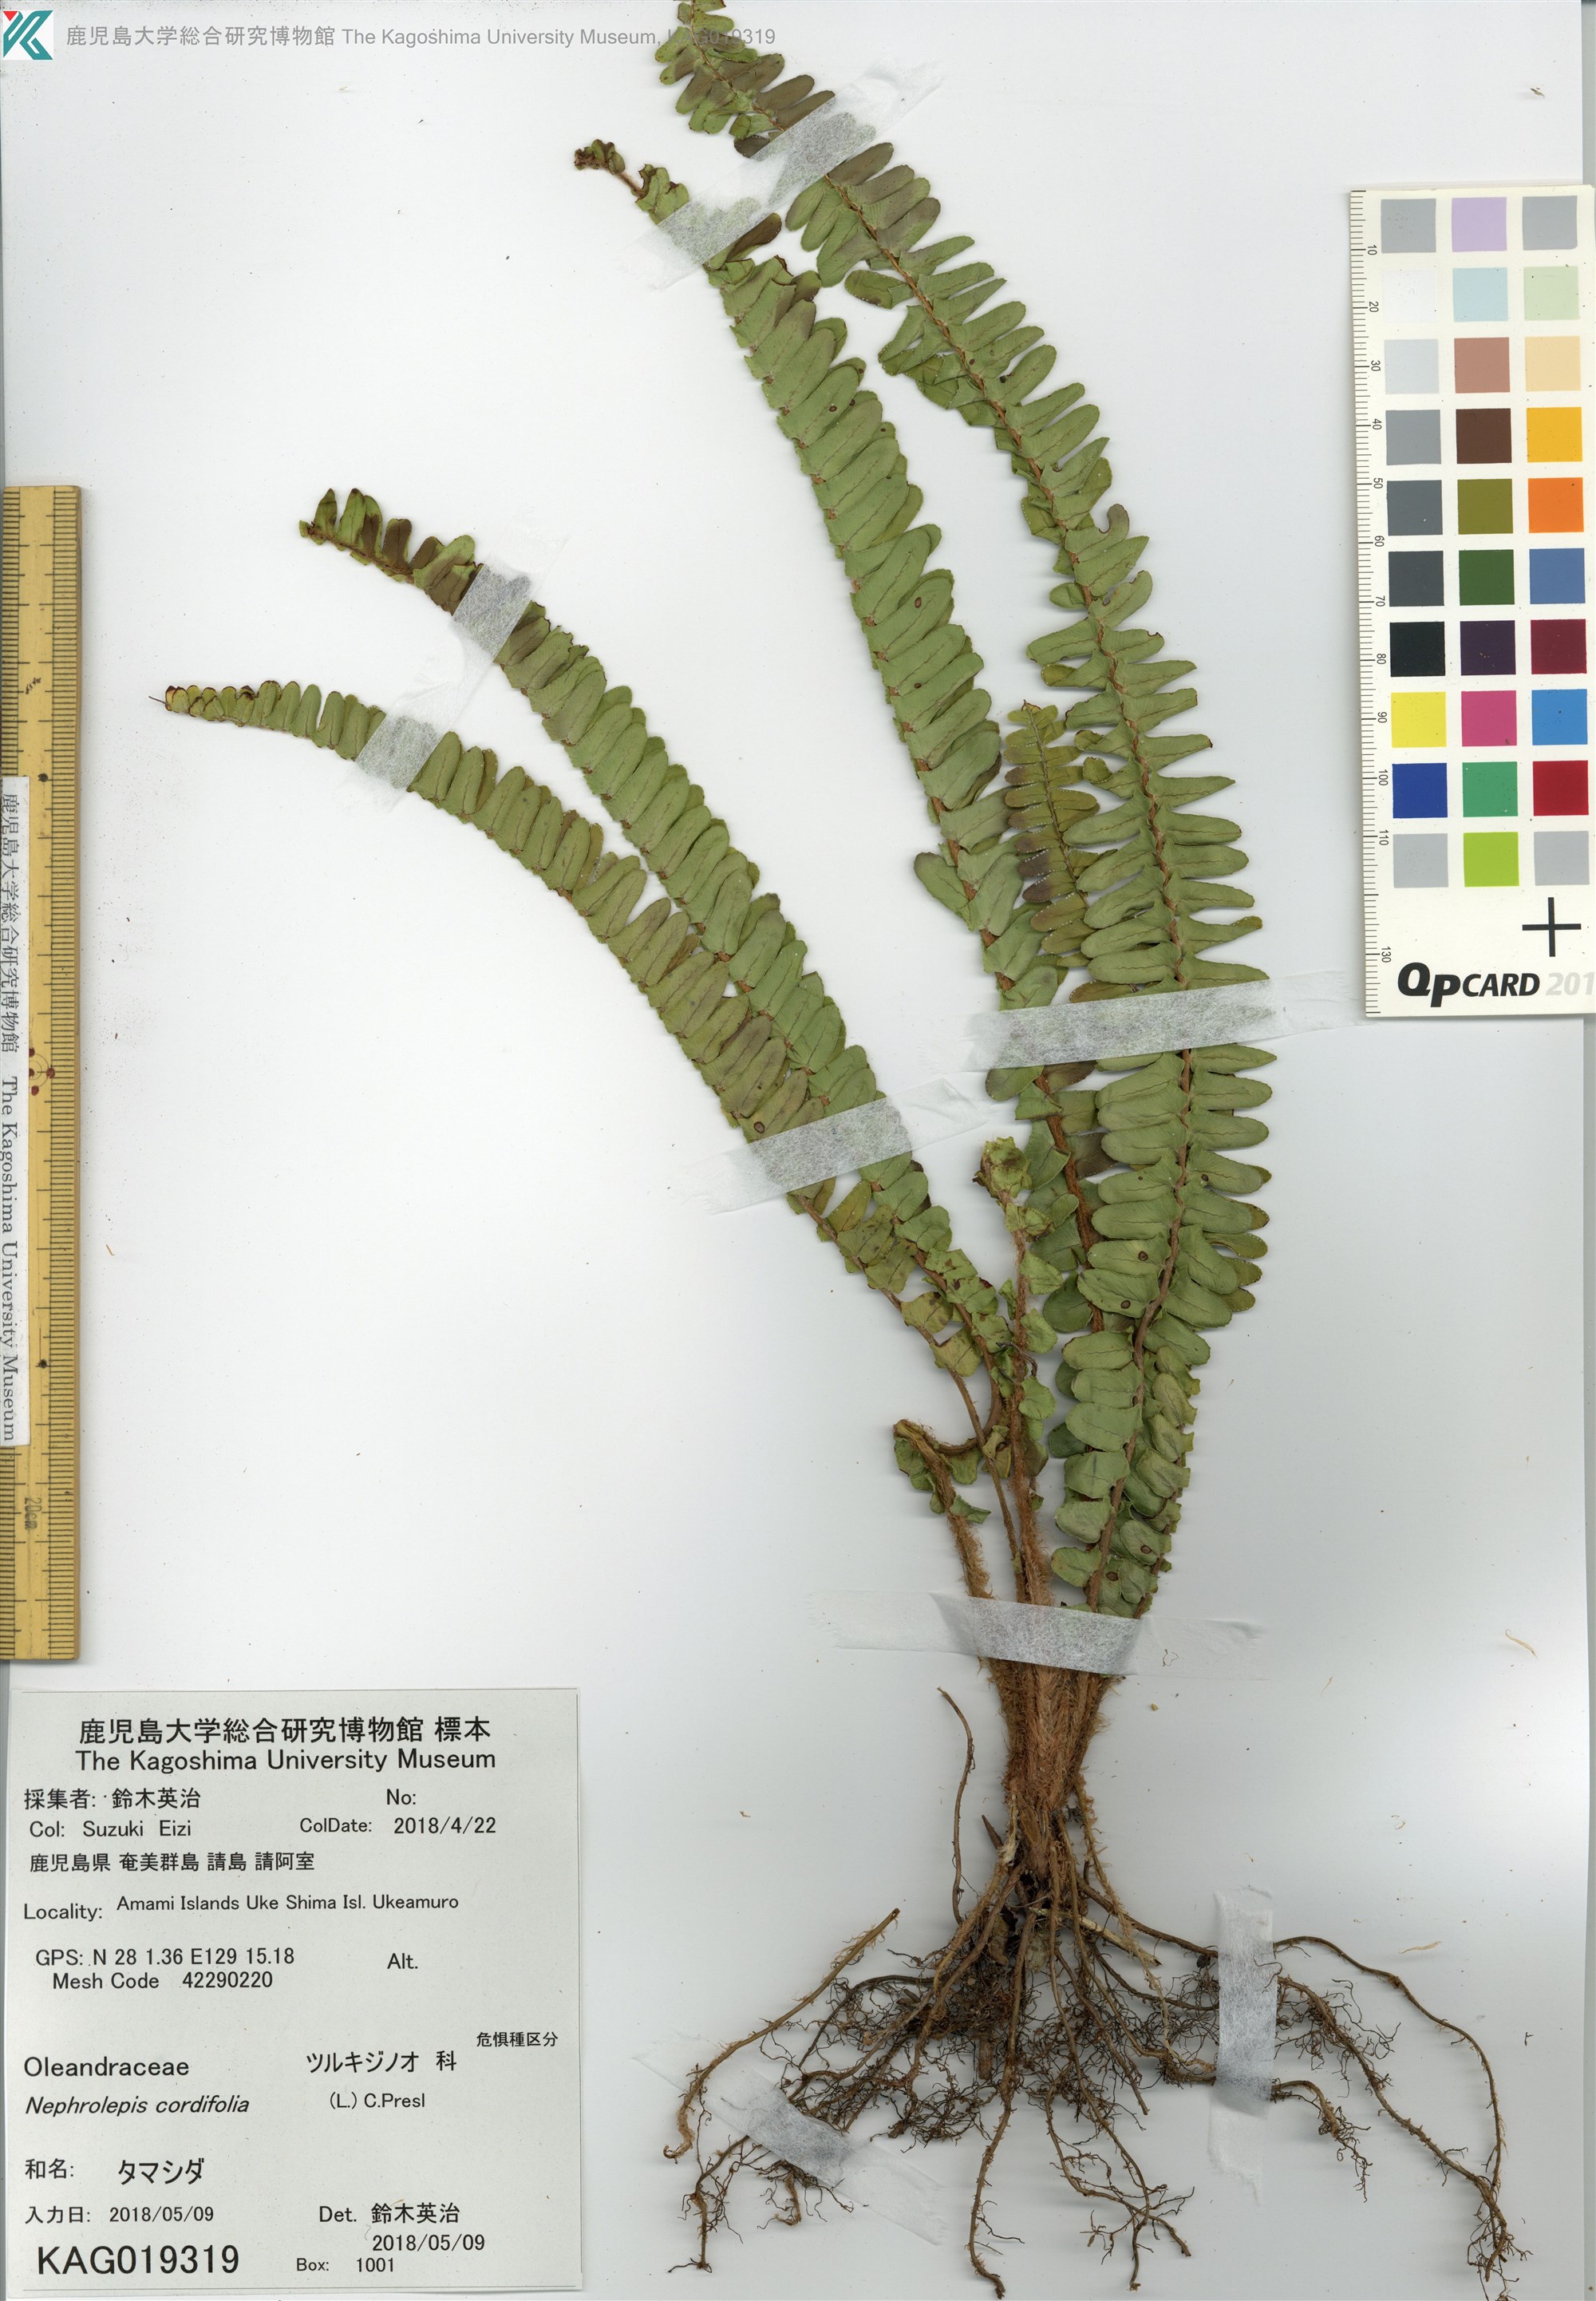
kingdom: Plantae
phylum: Tracheophyta
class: Polypodiopsida
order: Polypodiales
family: Nephrolepidaceae
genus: Nephrolepis
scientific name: Nephrolepis cordifolia
